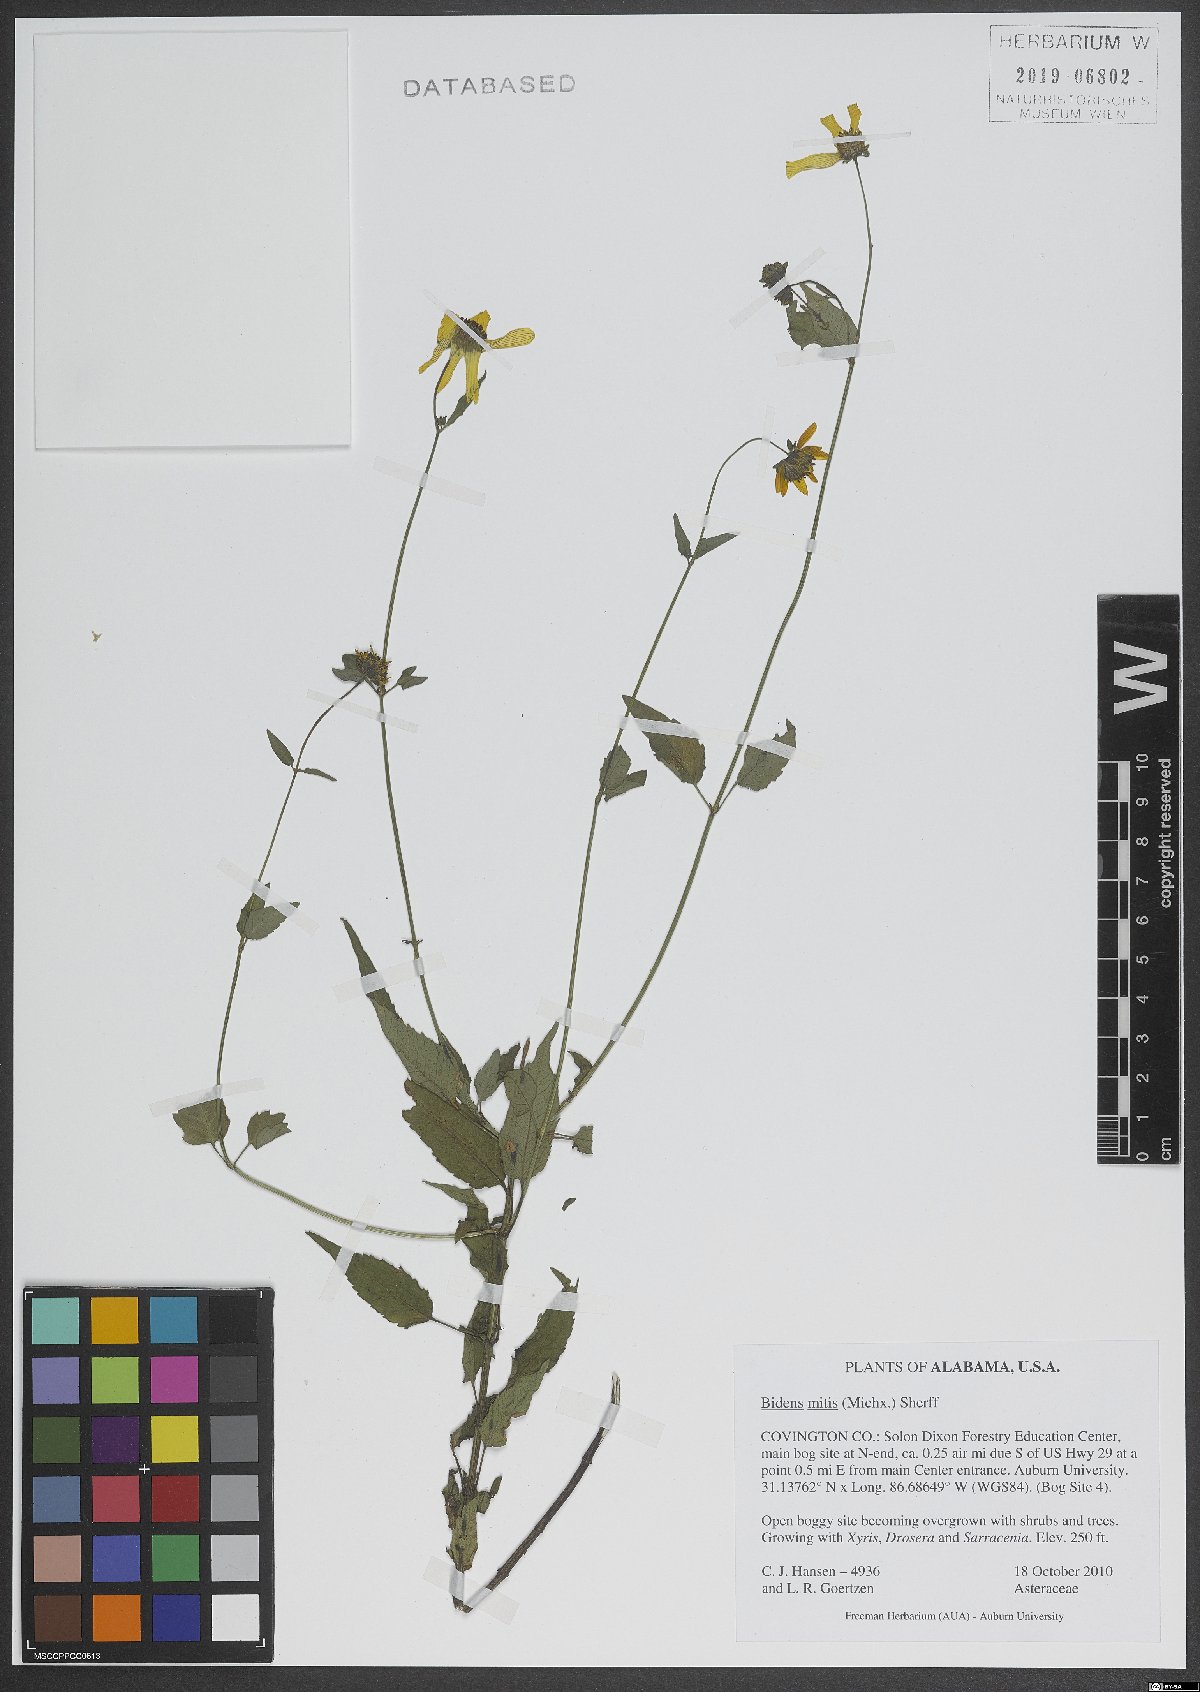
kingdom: Plantae
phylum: Tracheophyta
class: Magnoliopsida
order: Asterales
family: Asteraceae
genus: Bidens
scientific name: Bidens mitis
